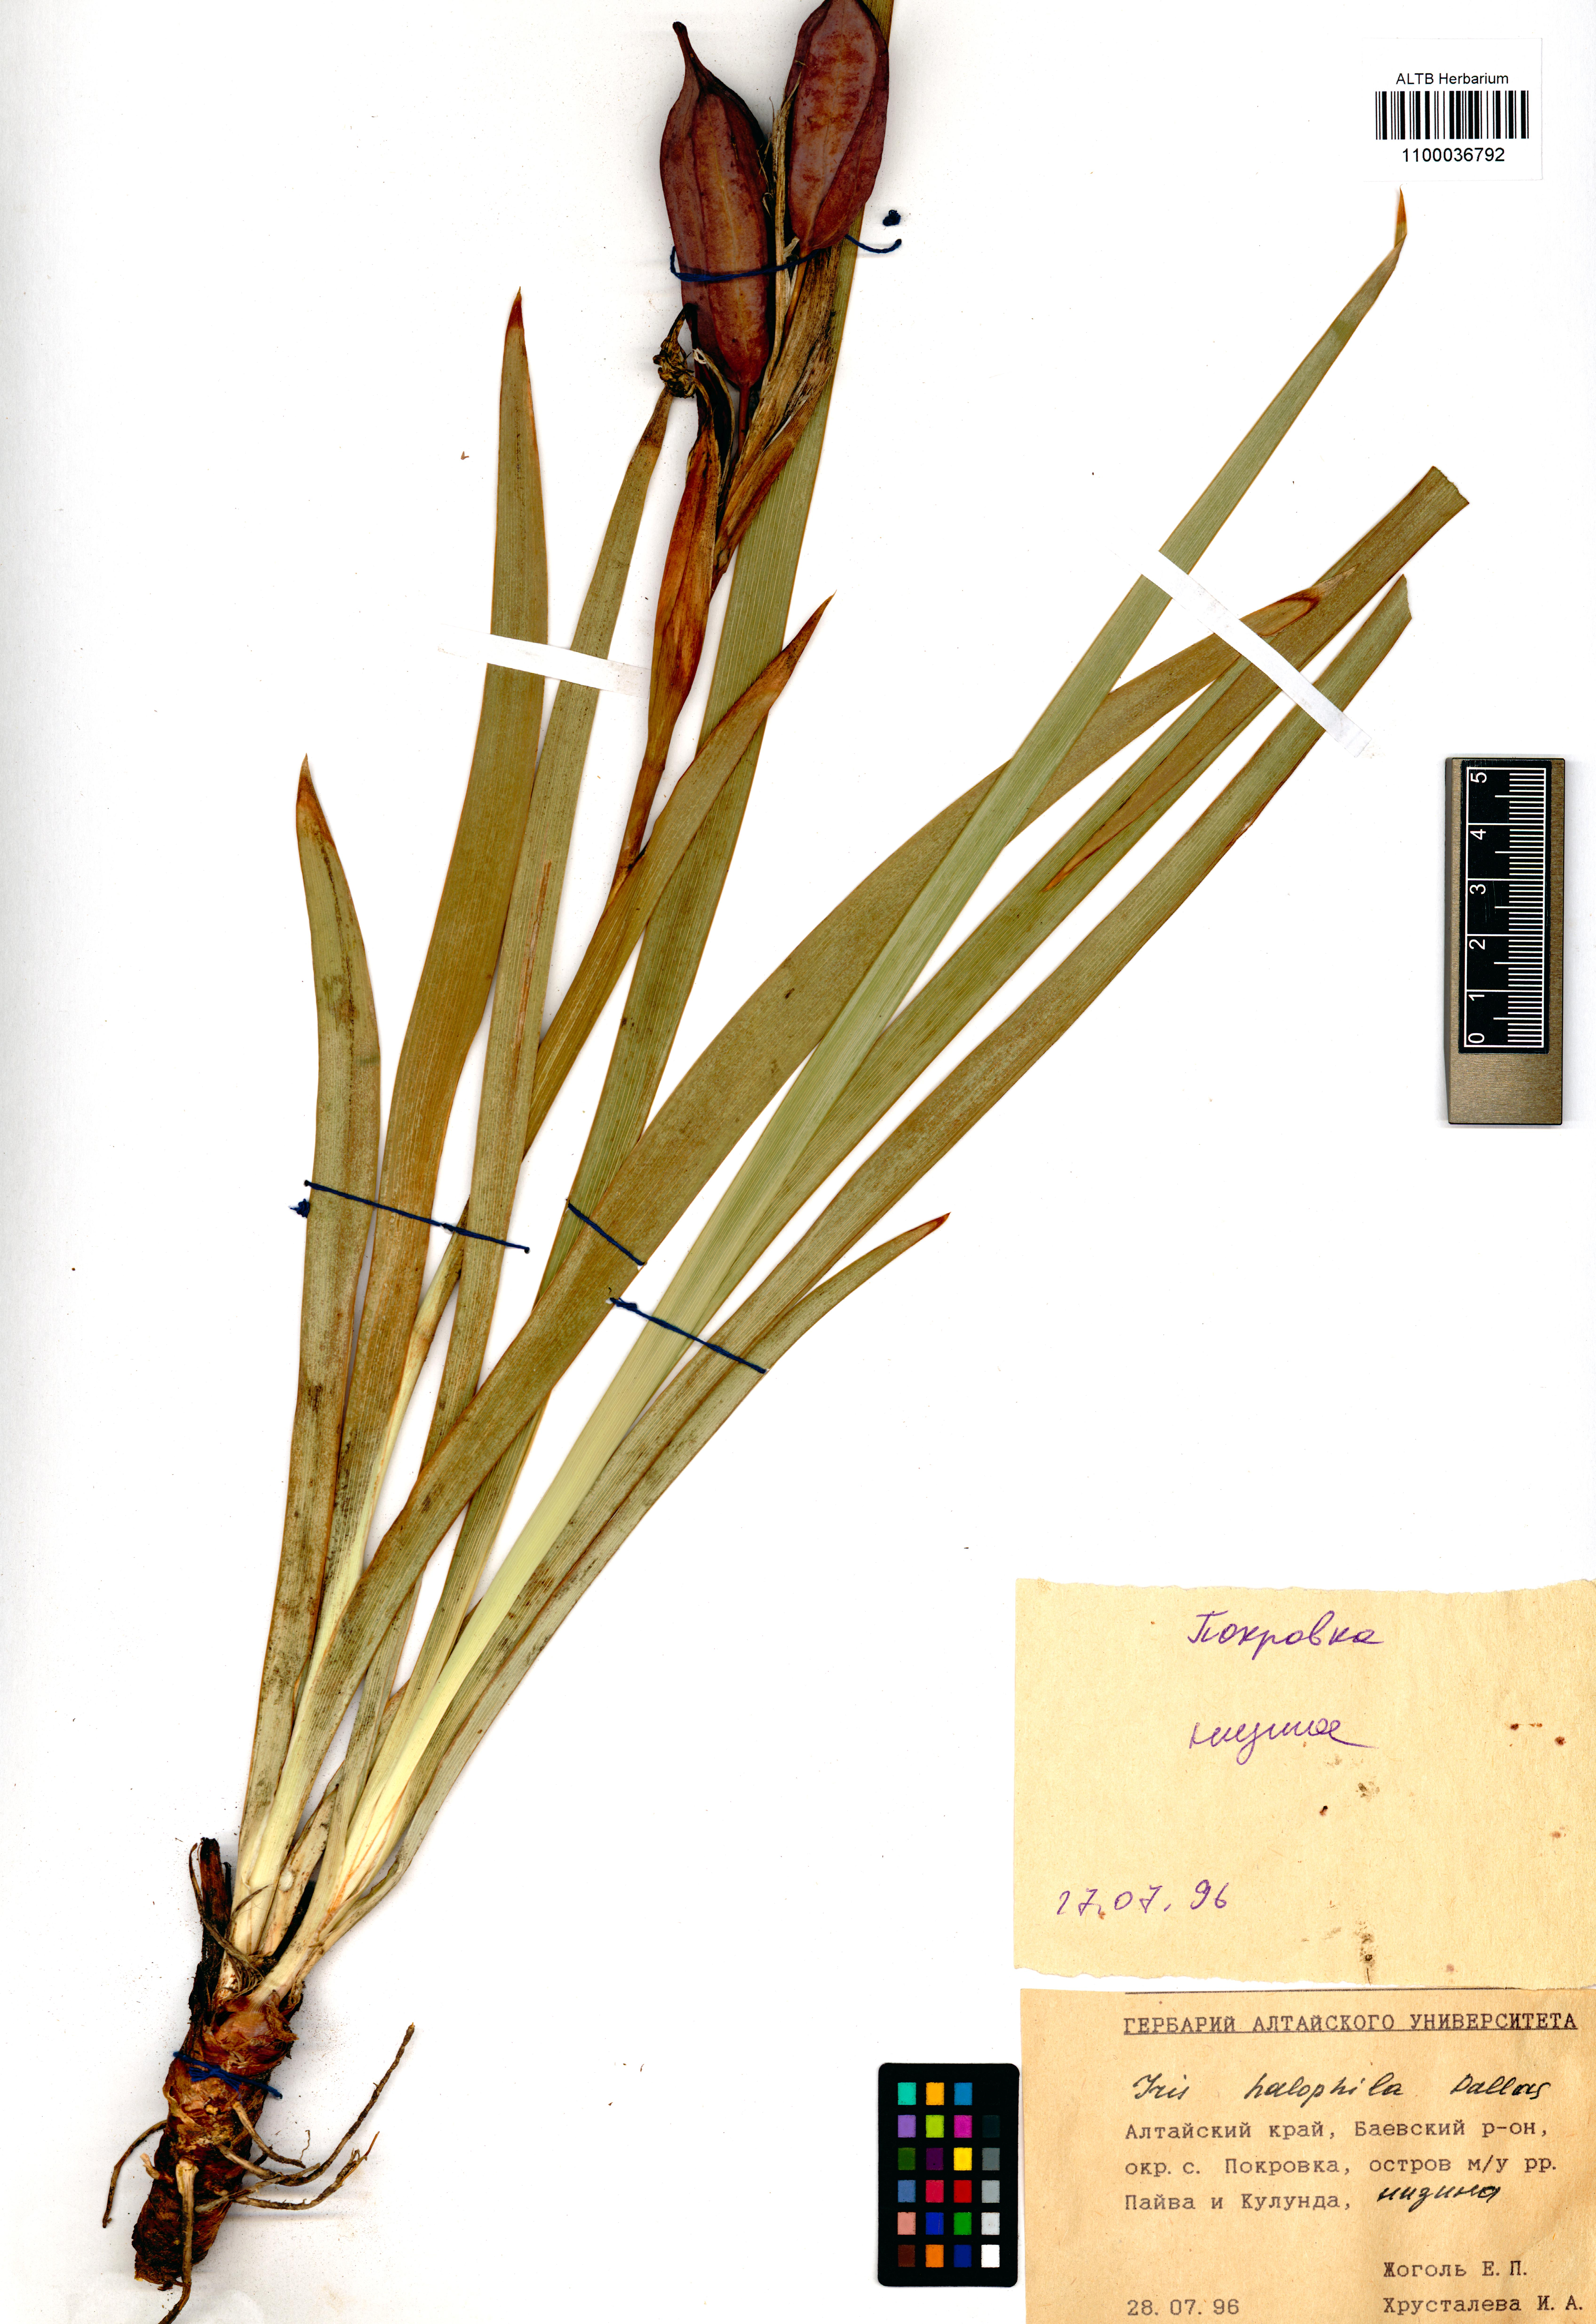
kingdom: Plantae
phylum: Tracheophyta
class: Liliopsida
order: Asparagales
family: Iridaceae
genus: Iris
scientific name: Iris halophila
